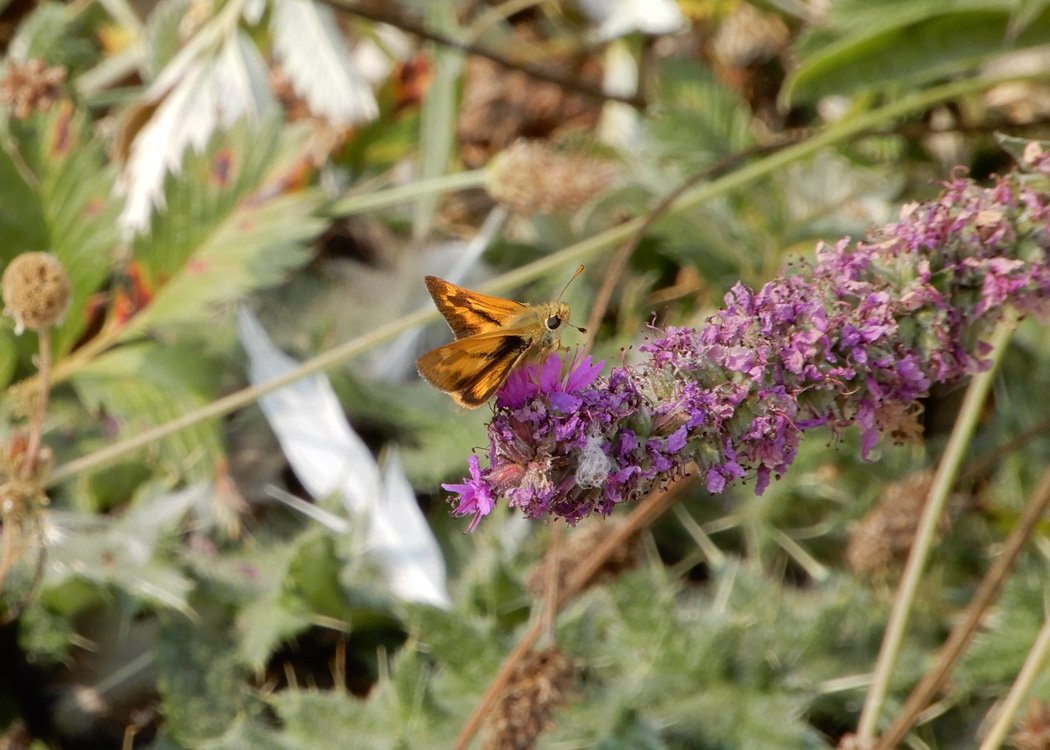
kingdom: Animalia
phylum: Arthropoda
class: Insecta
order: Lepidoptera
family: Hesperiidae
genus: Ochlodes
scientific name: Ochlodes sylvanoides
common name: Woodland Skipper
